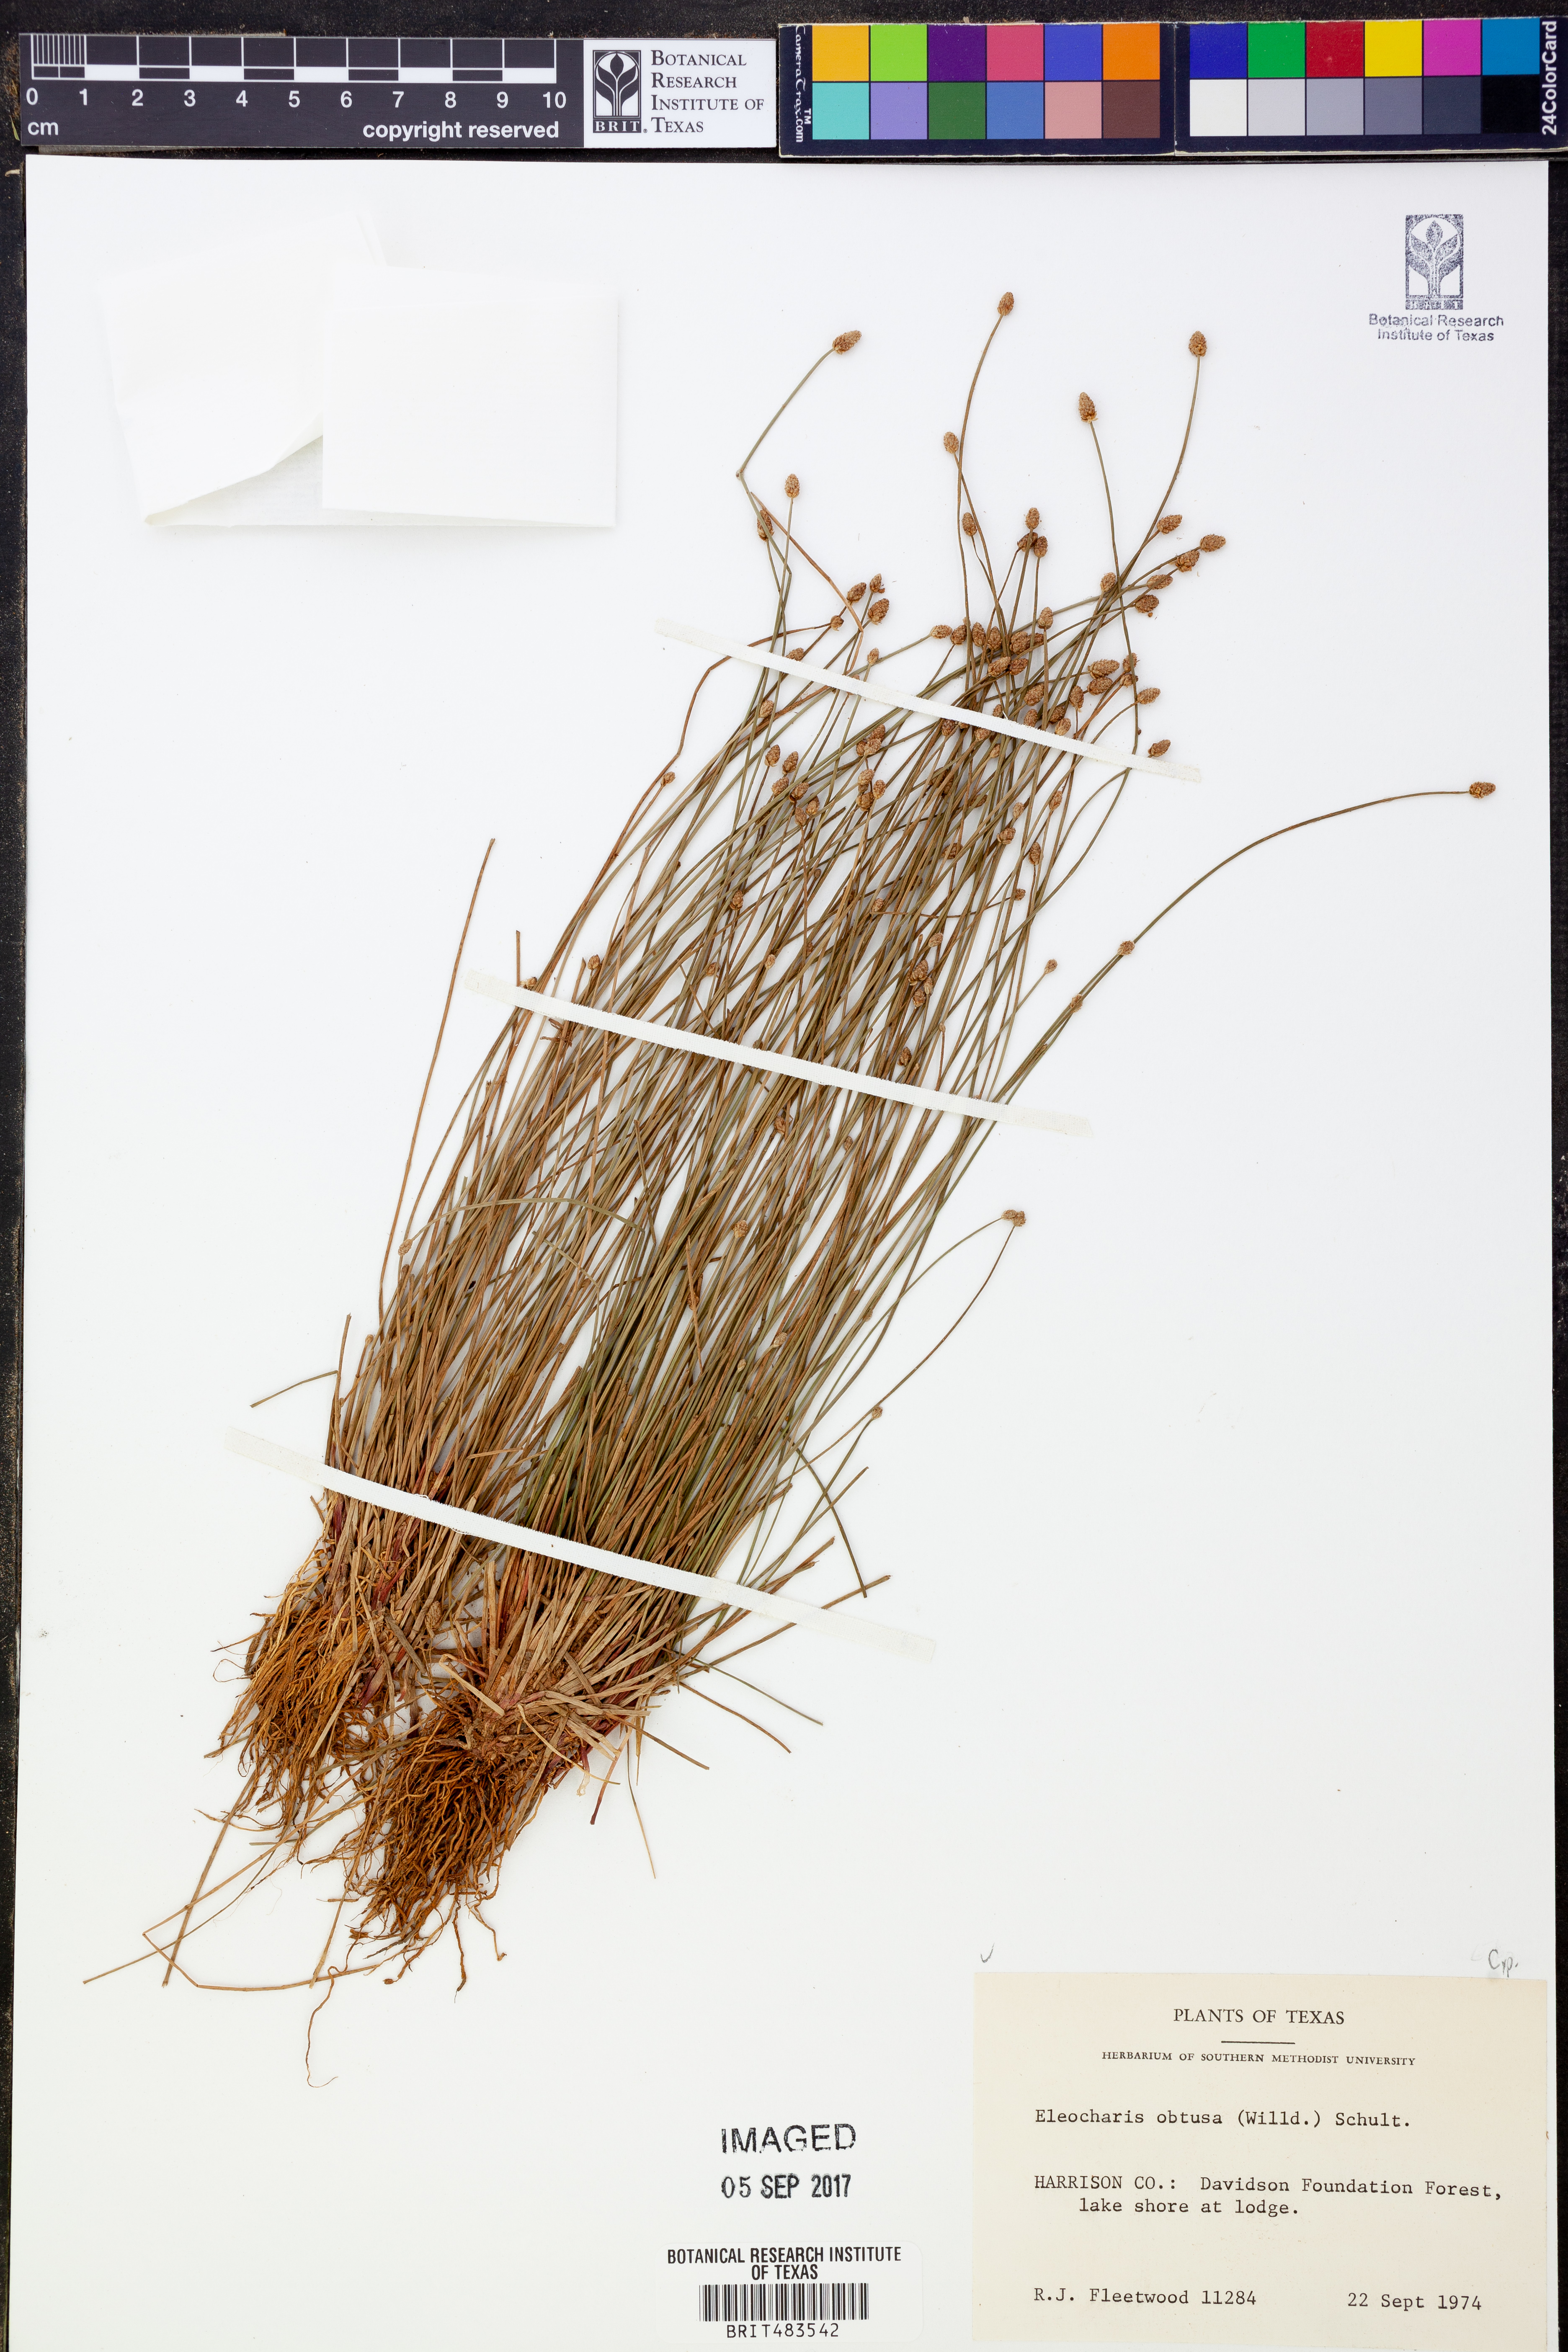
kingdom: Plantae
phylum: Tracheophyta
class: Liliopsida
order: Poales
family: Cyperaceae
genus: Eleocharis
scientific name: Eleocharis obtusa
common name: Blunt spikerush
